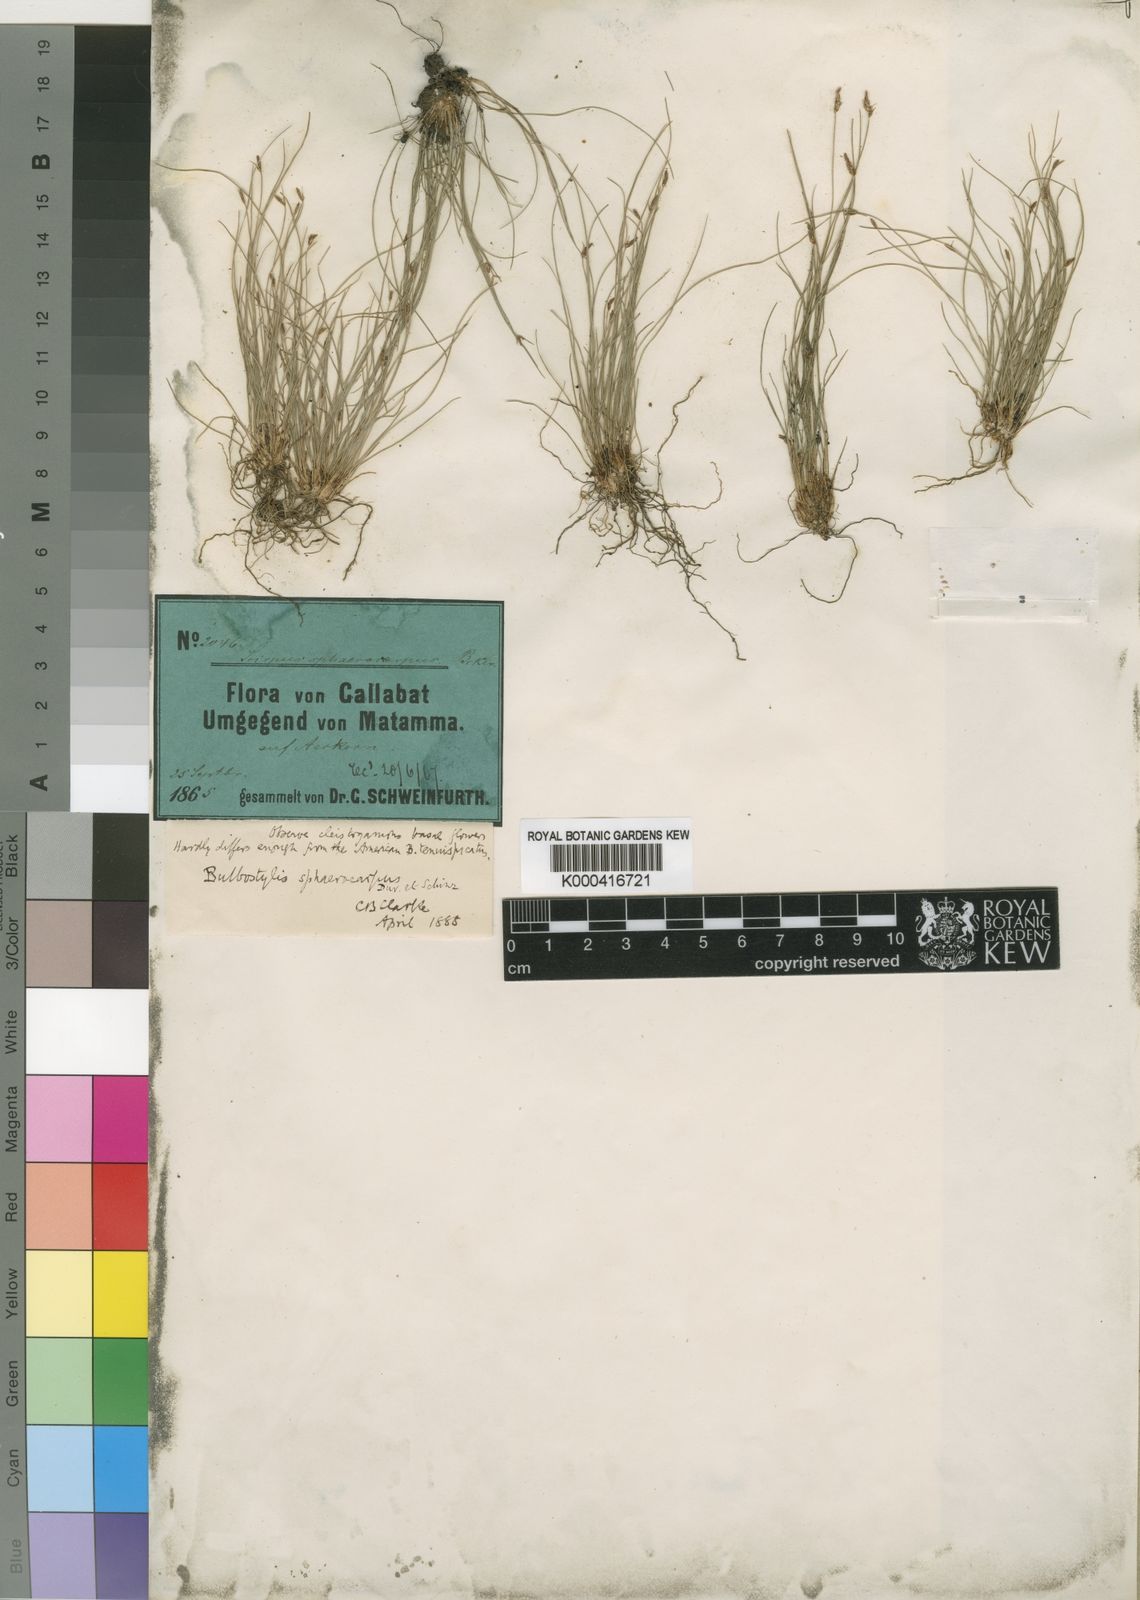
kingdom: Plantae
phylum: Tracheophyta
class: Liliopsida
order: Poales
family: Cyperaceae
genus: Bulbostylis
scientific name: Bulbostylis
